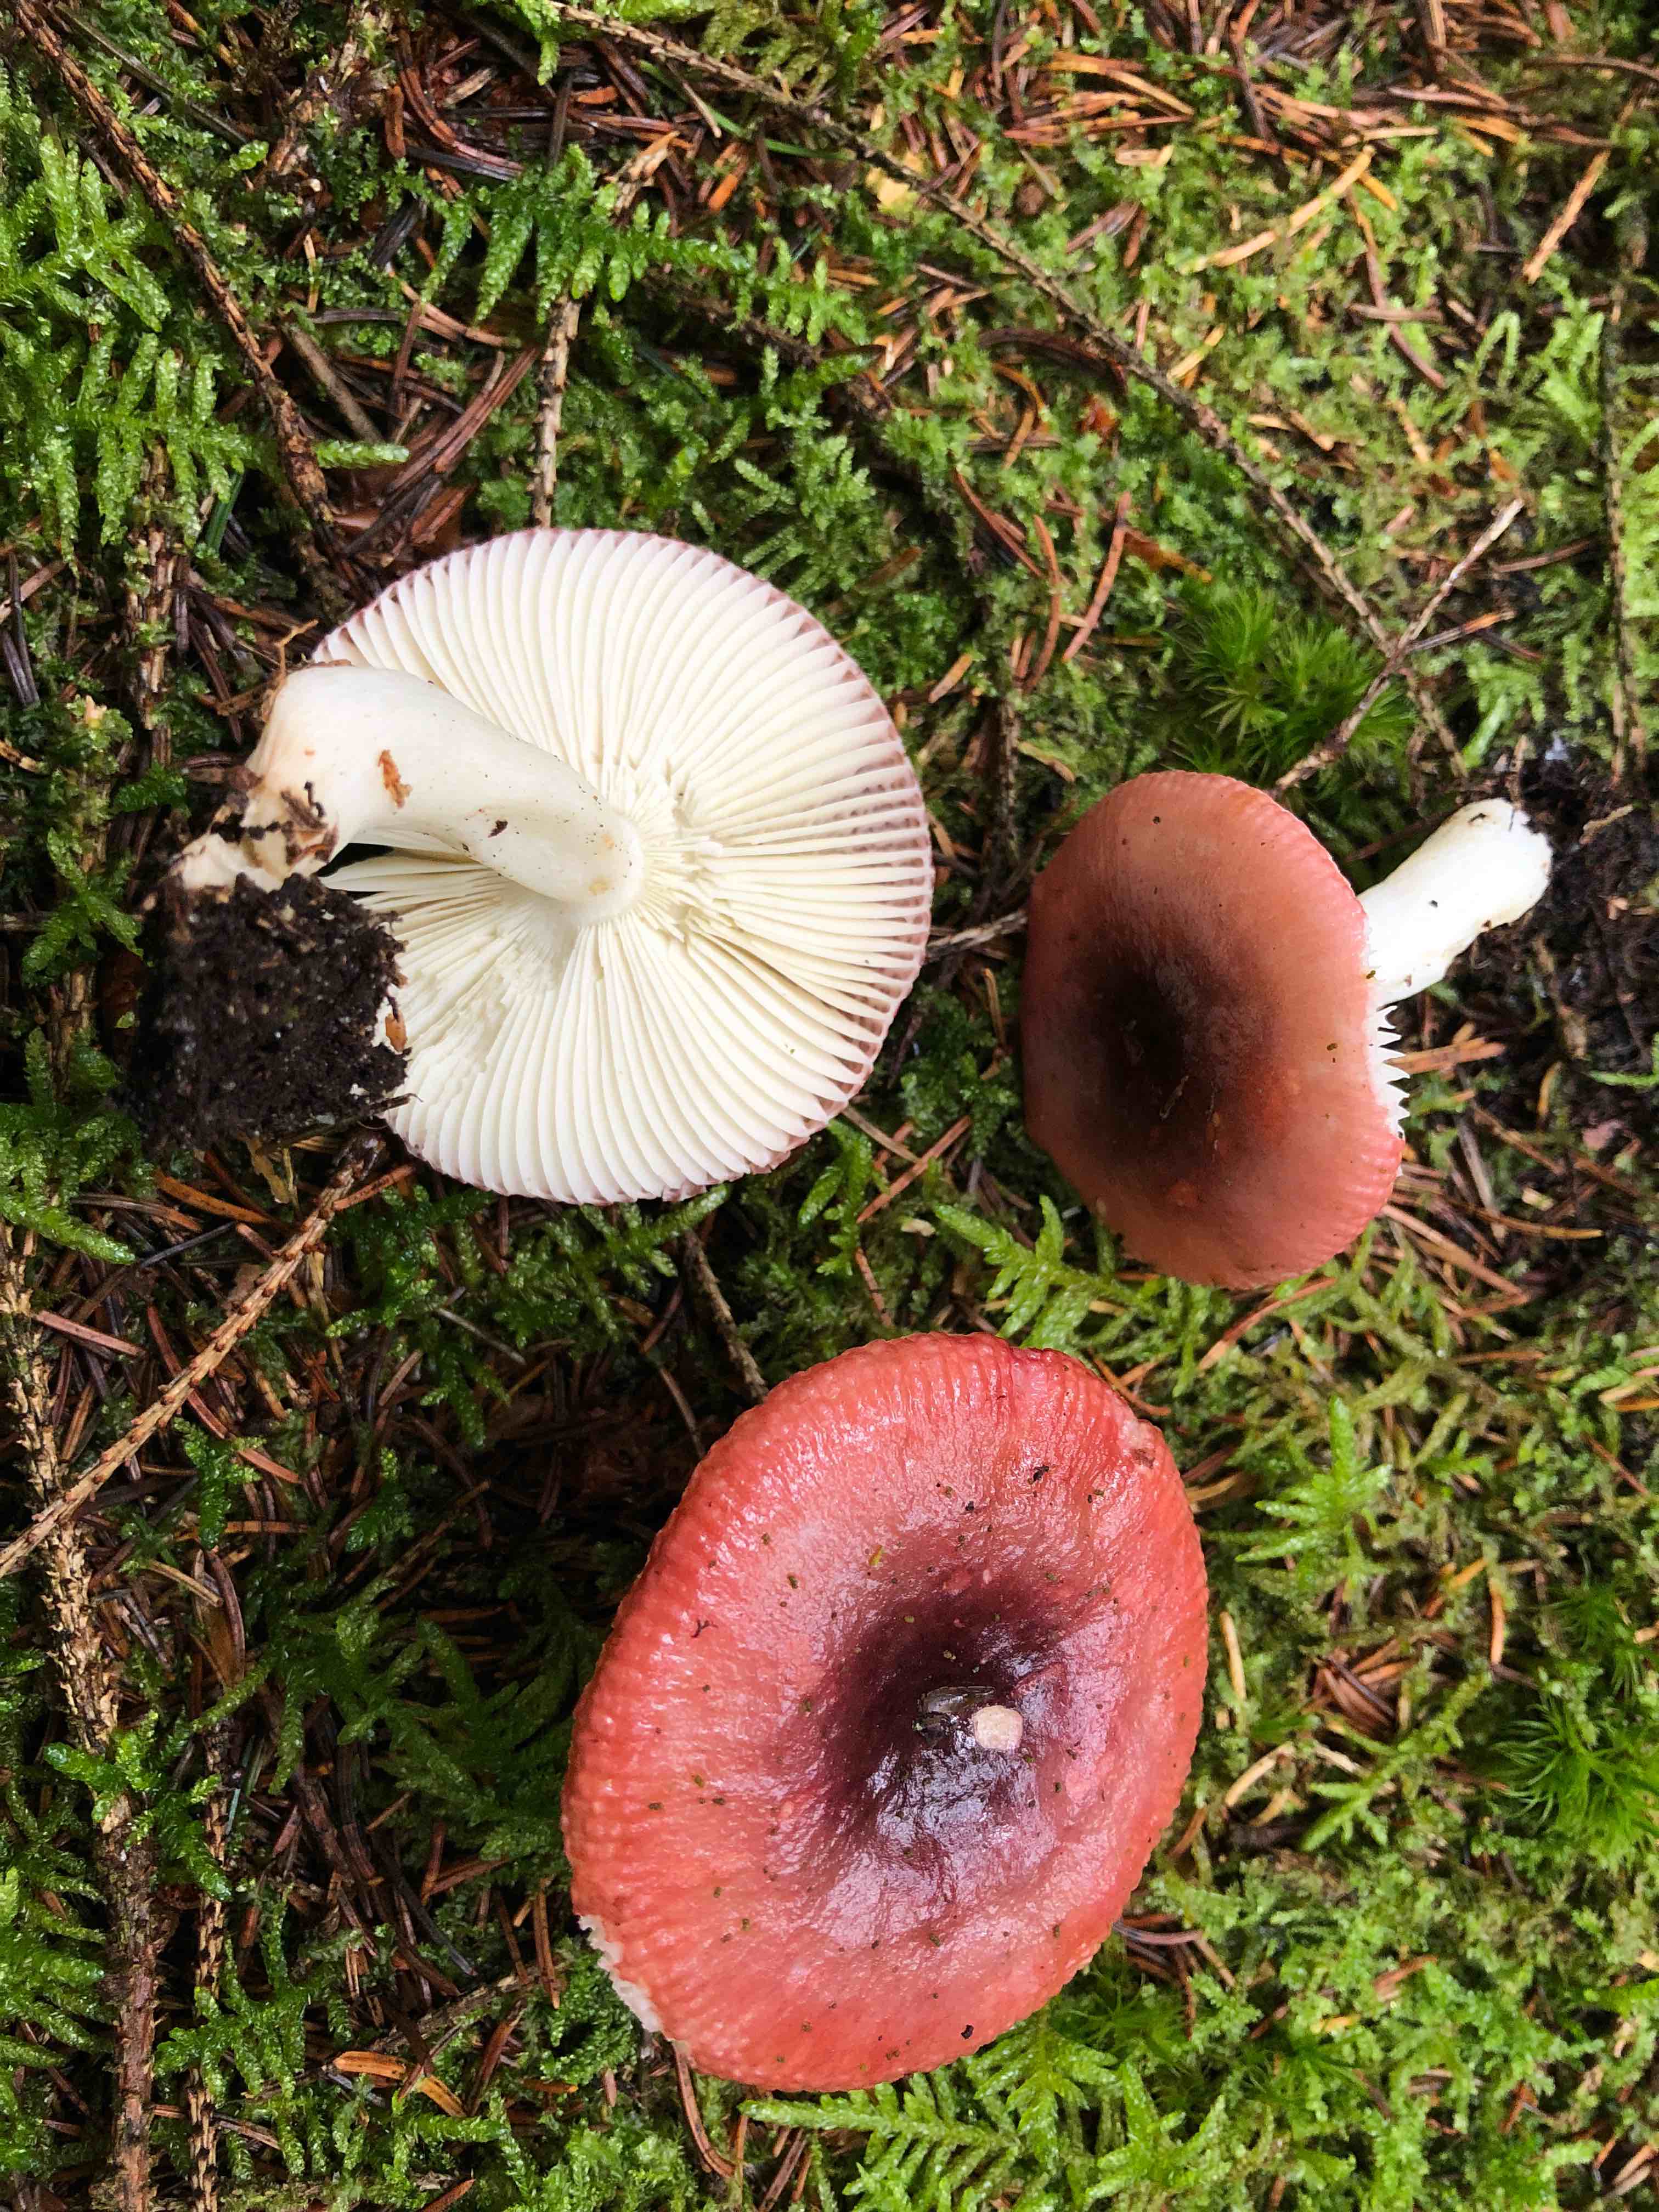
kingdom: Fungi
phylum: Basidiomycota
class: Agaricomycetes
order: Russulales
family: Russulaceae
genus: Russula
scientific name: Russula atrorubens
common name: sortrød skørhat
